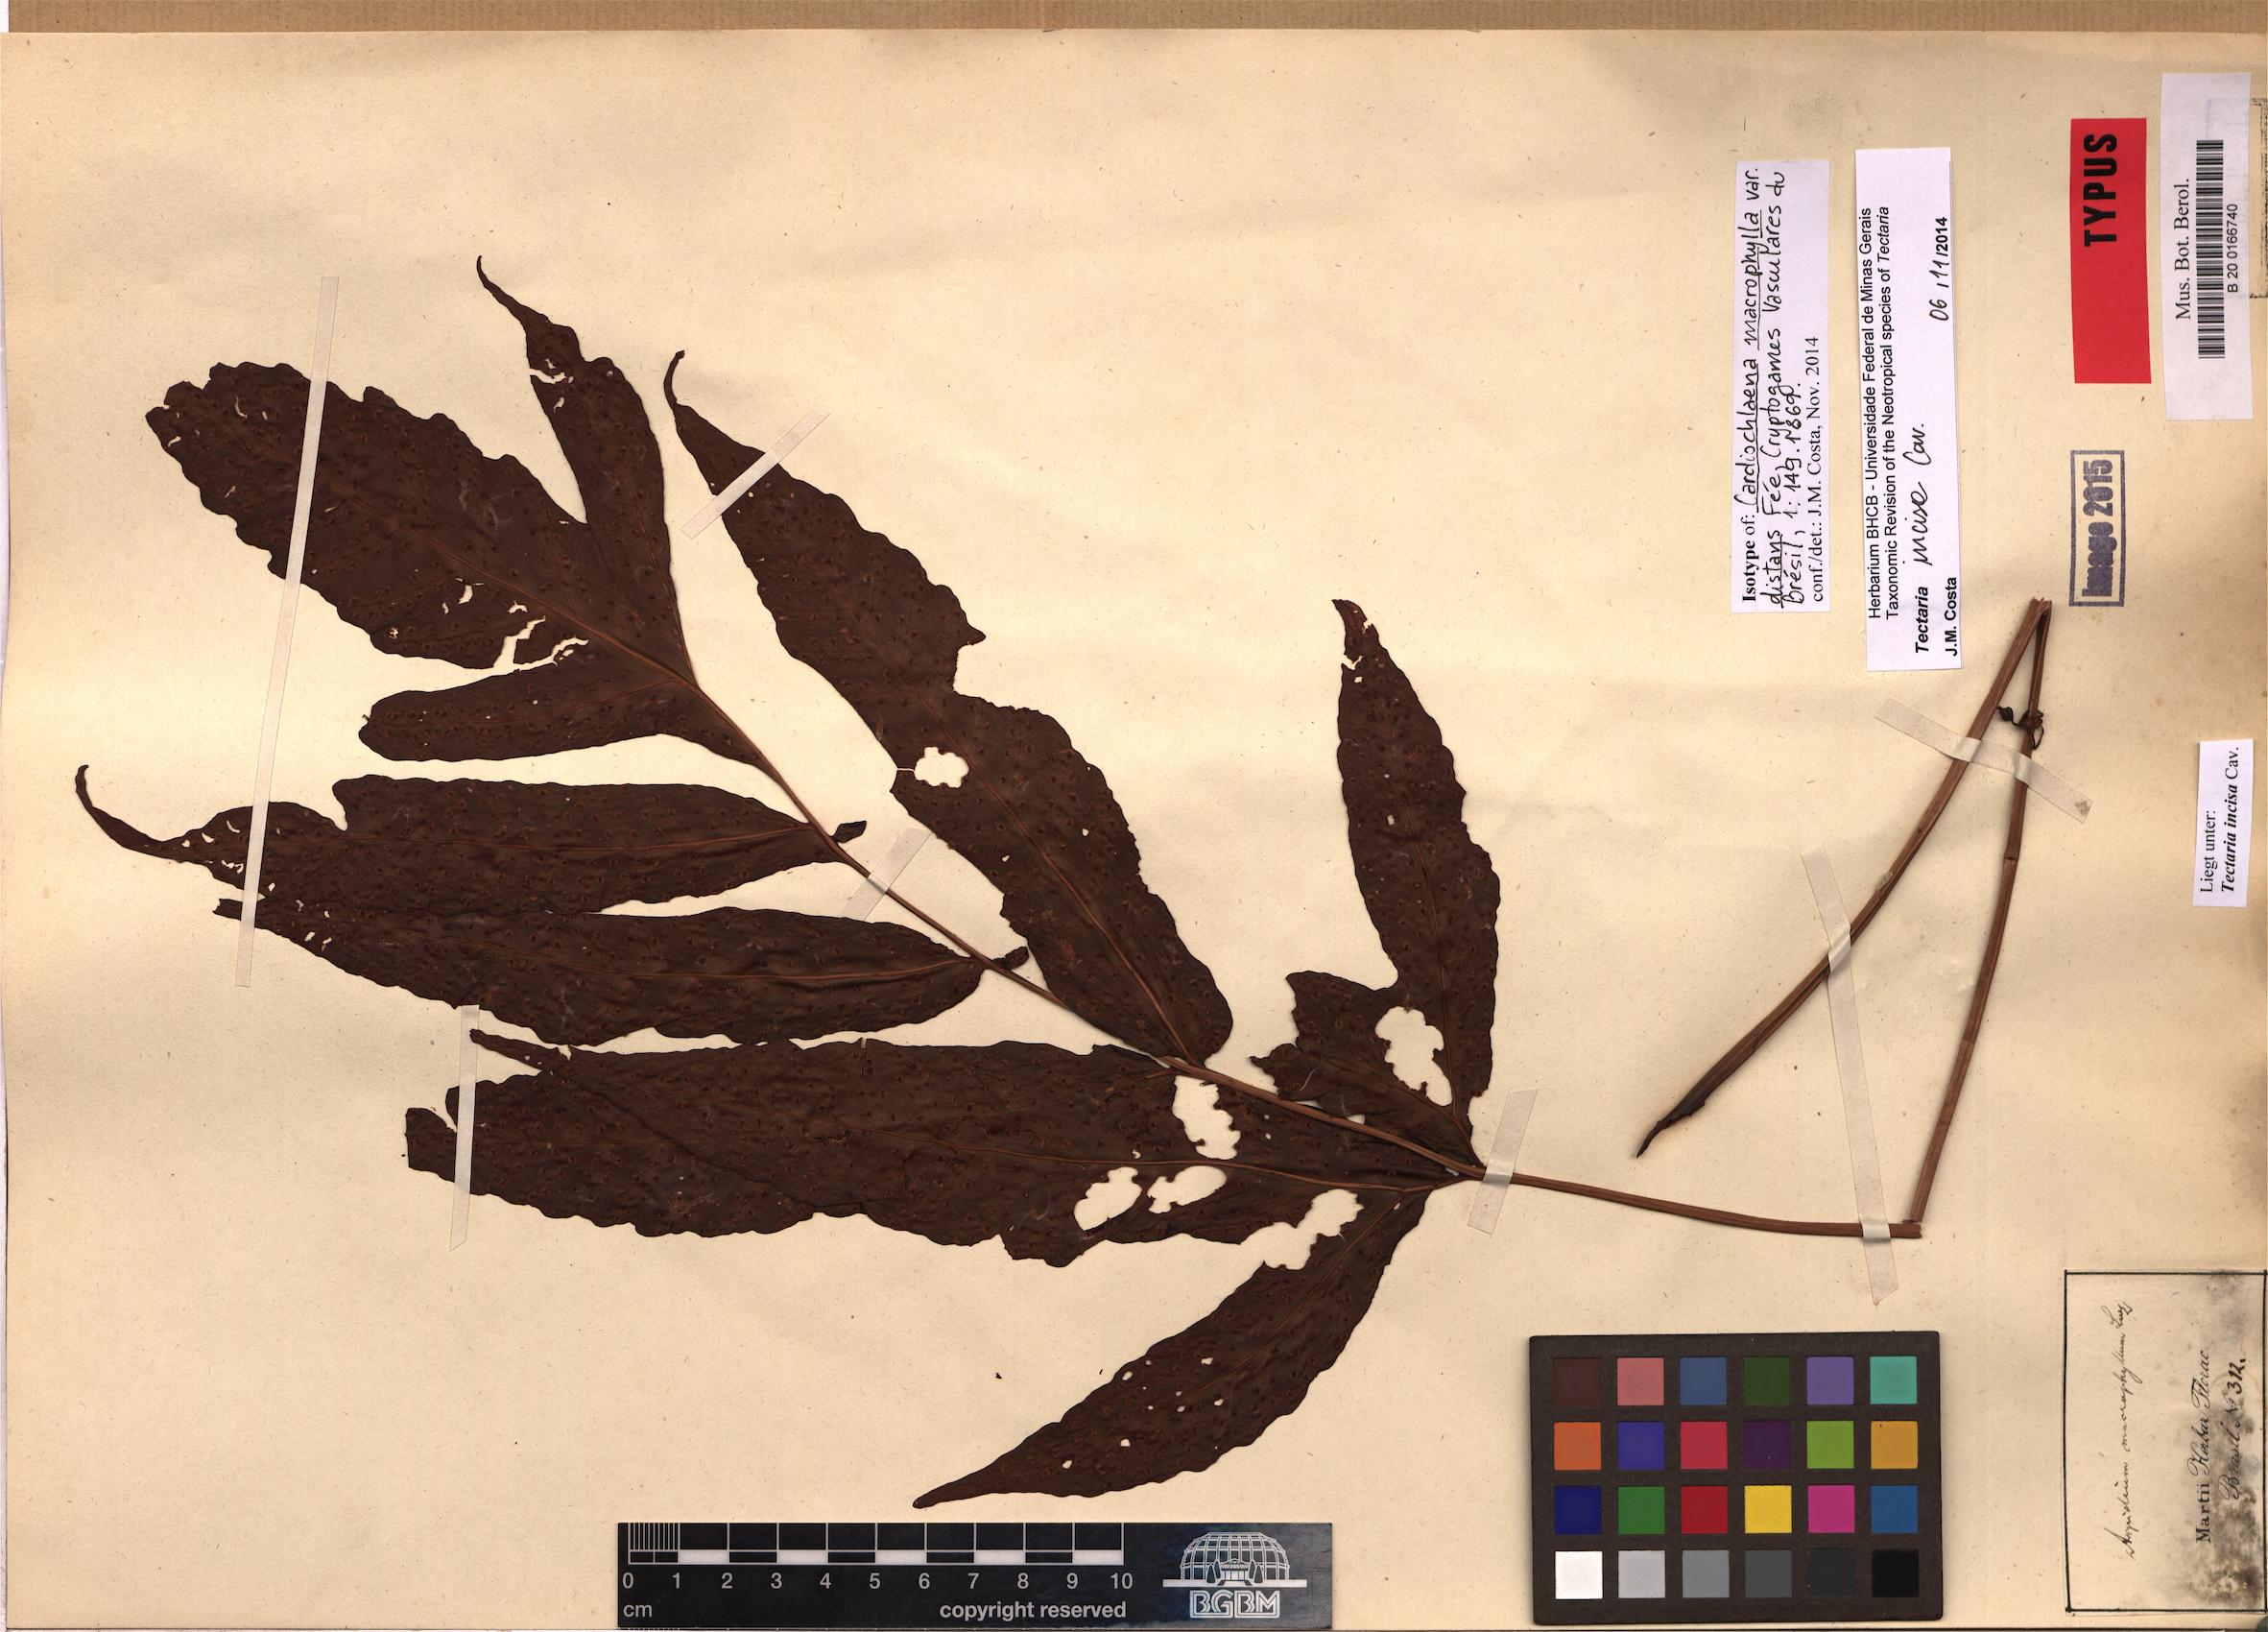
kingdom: Plantae
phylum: Tracheophyta
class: Polypodiopsida
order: Polypodiales
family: Tectariaceae
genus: Tectaria
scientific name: Tectaria incisa
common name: Incised halberd fern
